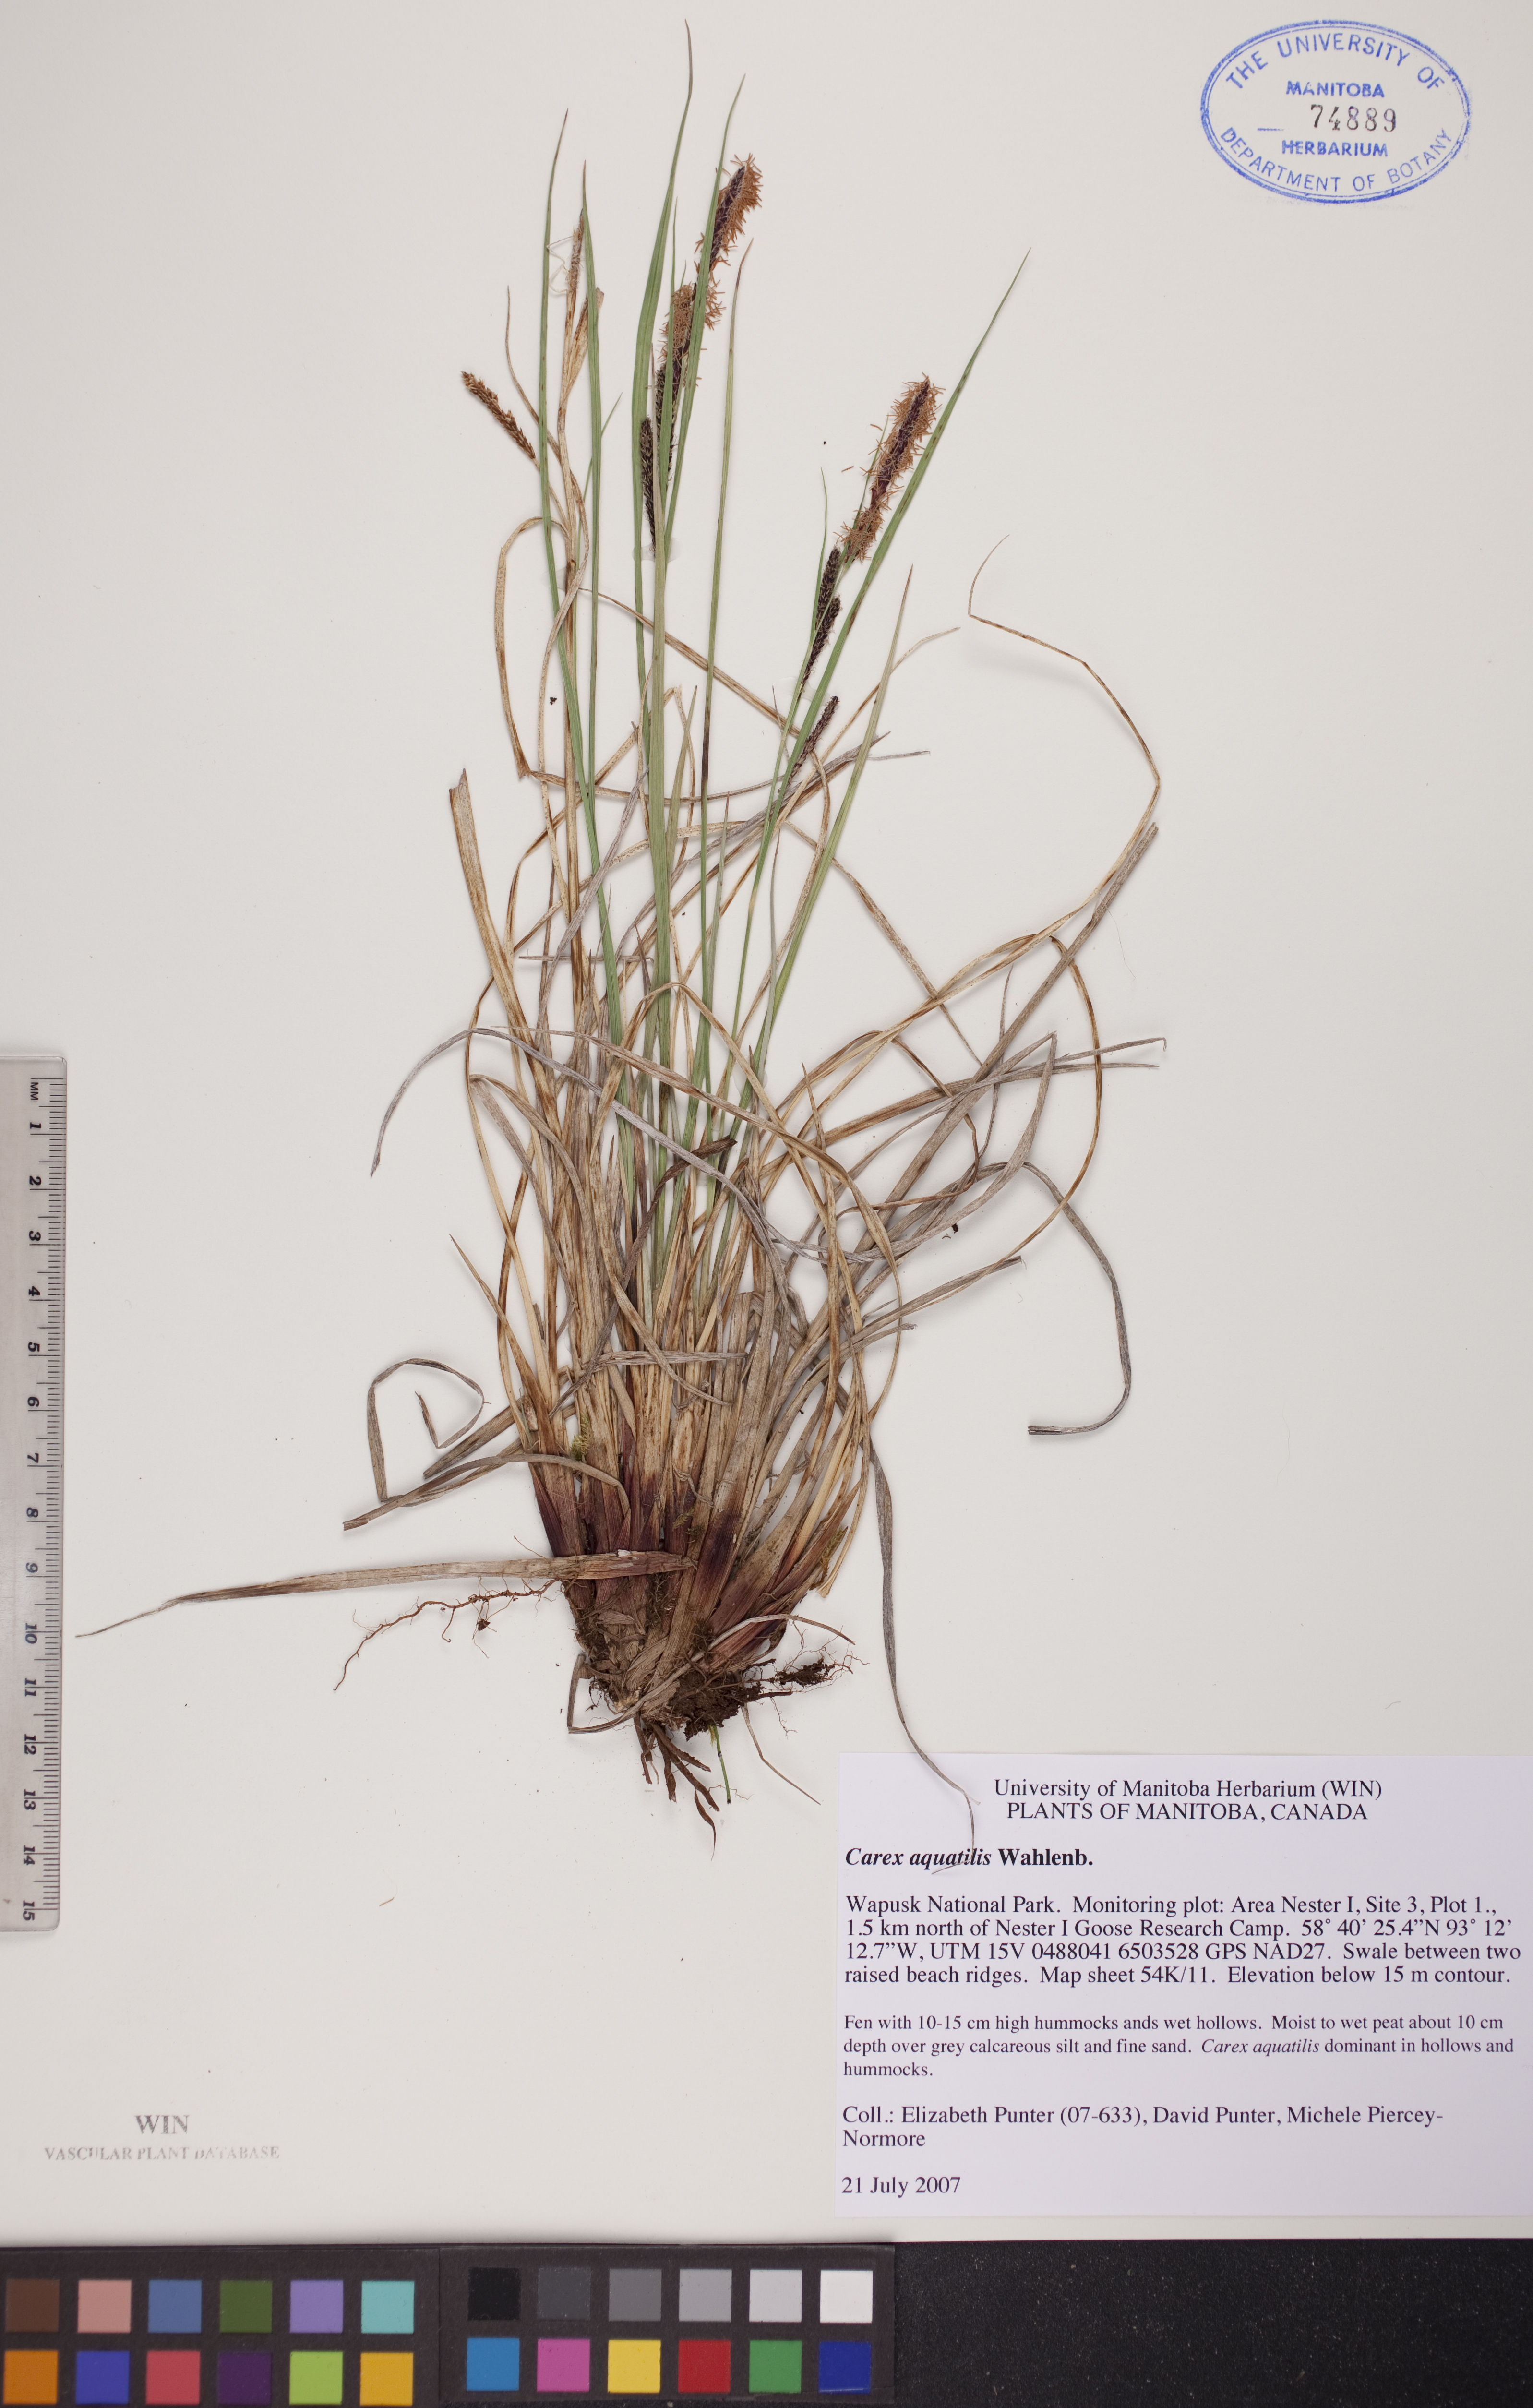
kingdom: Plantae
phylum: Tracheophyta
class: Liliopsida
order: Poales
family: Cyperaceae
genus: Carex
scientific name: Carex aquatilis
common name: Water sedge
